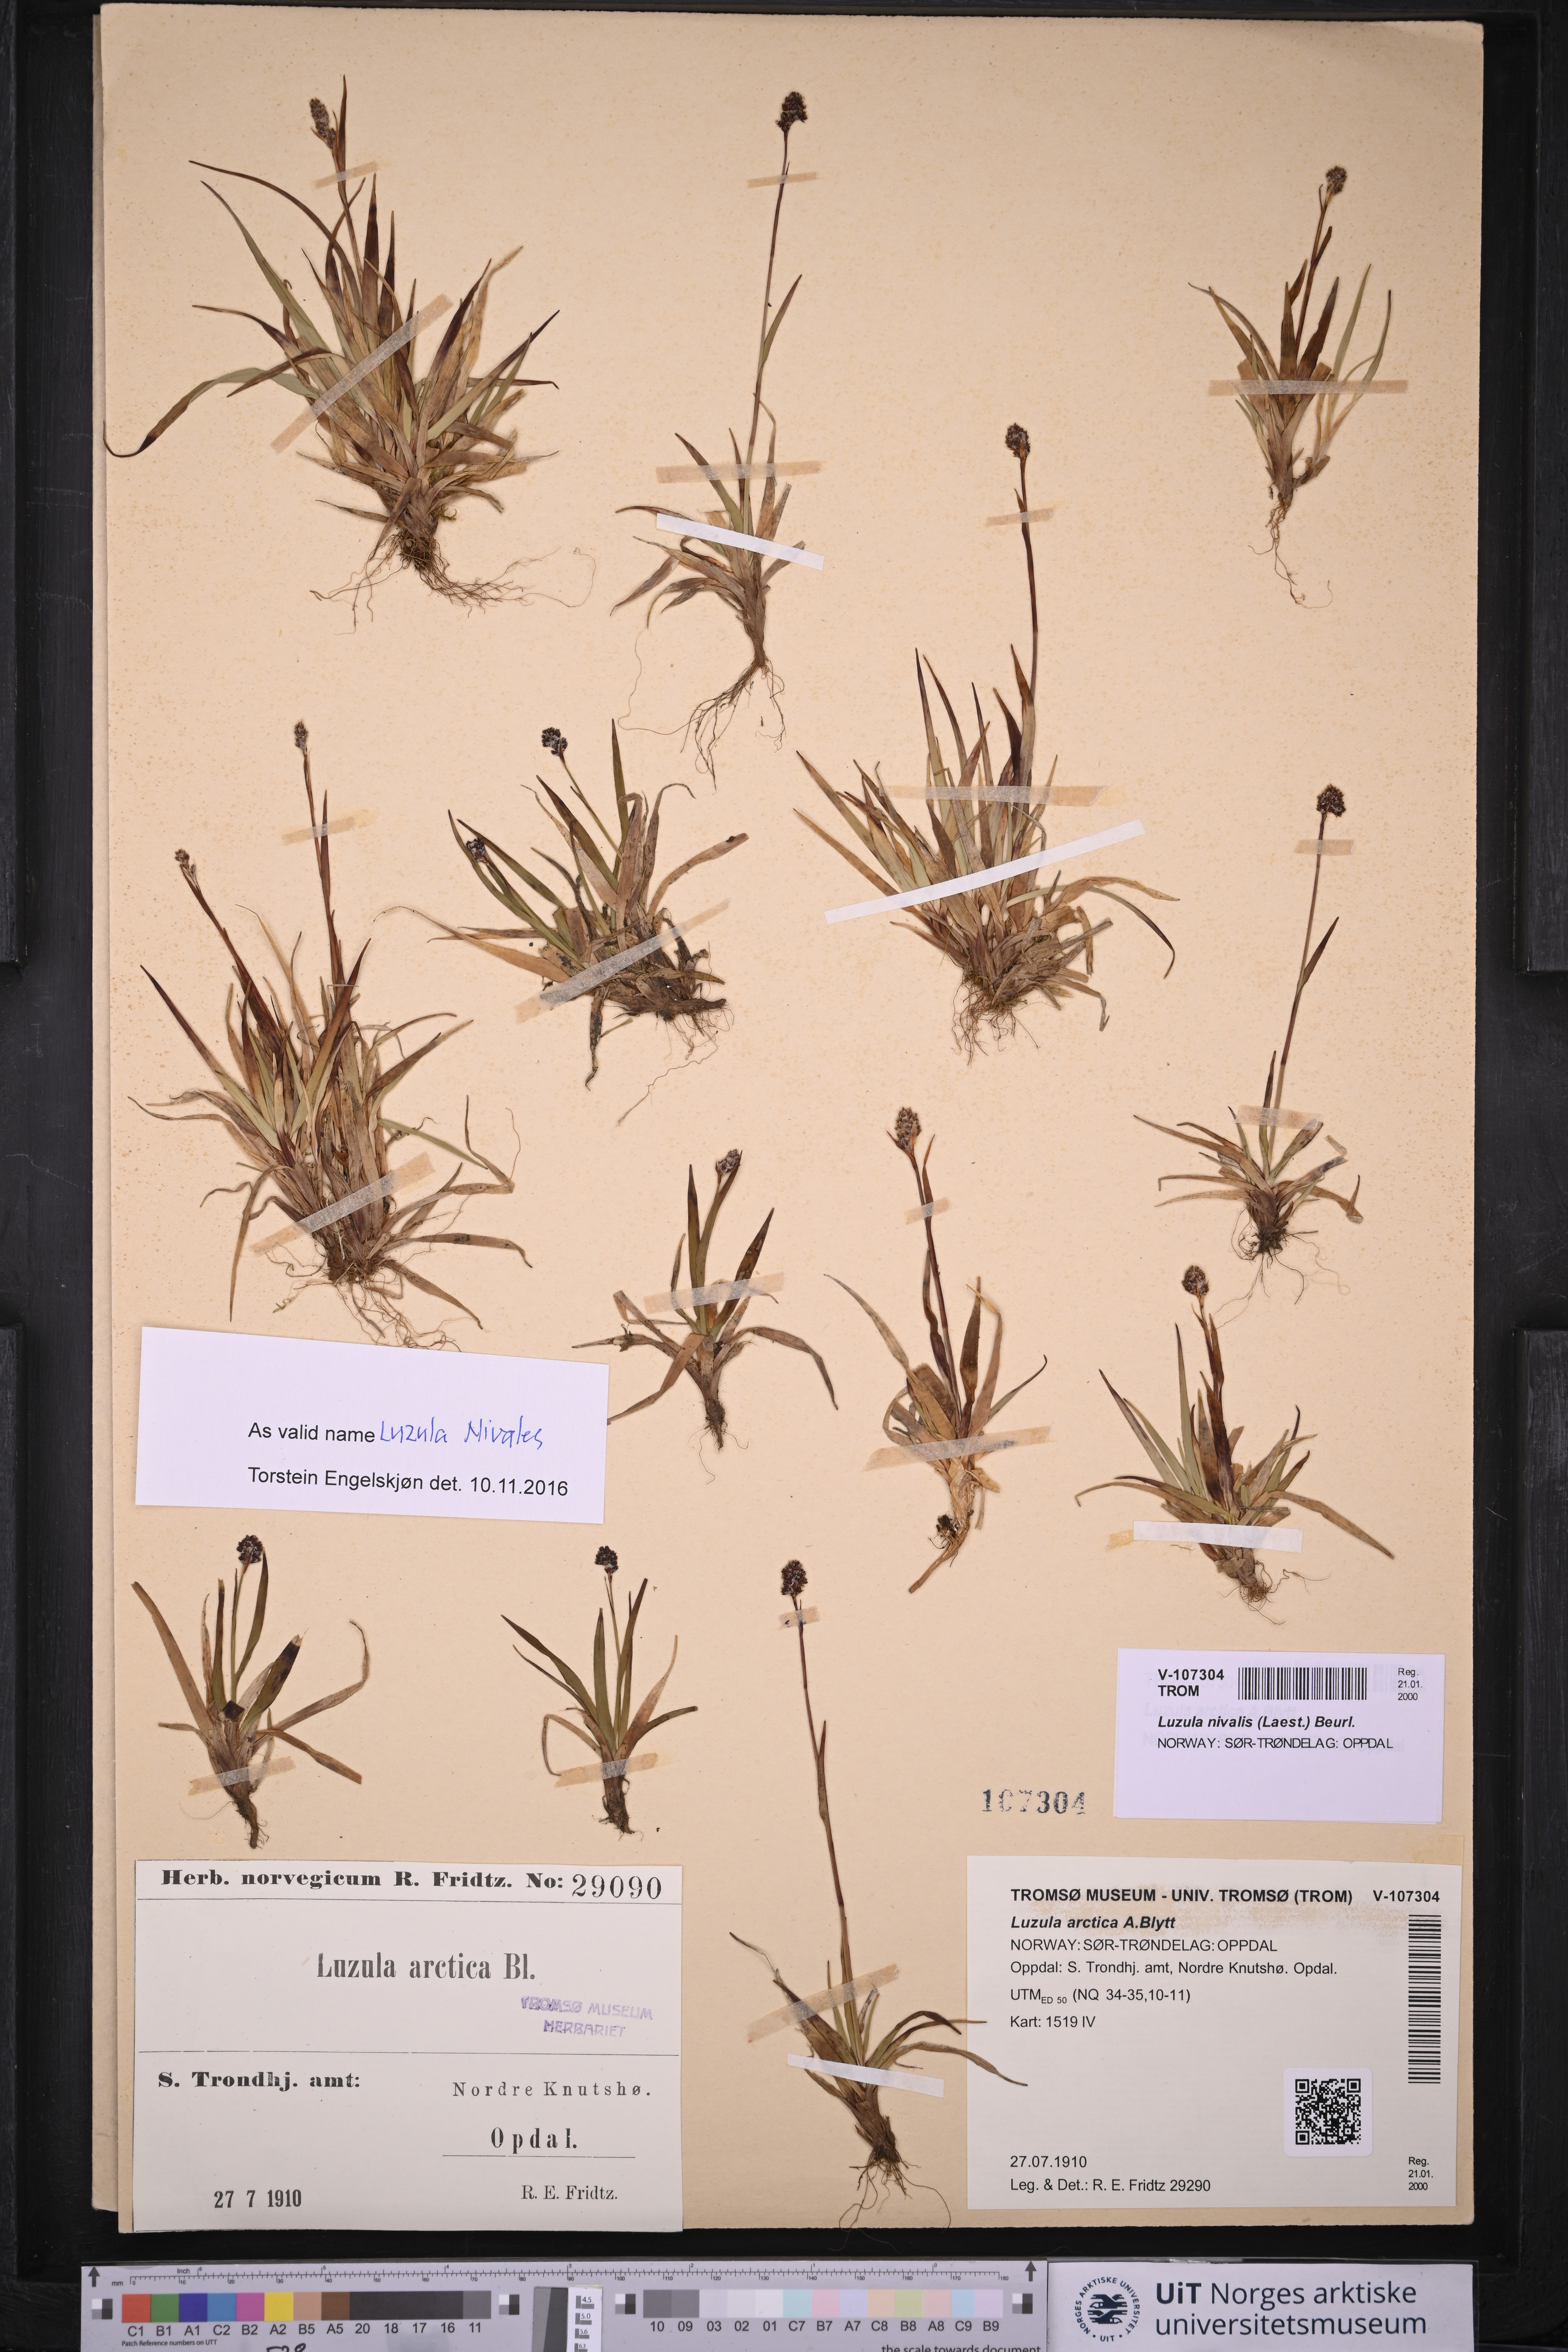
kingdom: Plantae
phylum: Tracheophyta
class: Liliopsida
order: Poales
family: Juncaceae
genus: Luzula
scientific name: Luzula nivalis
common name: Arctic woodrush
